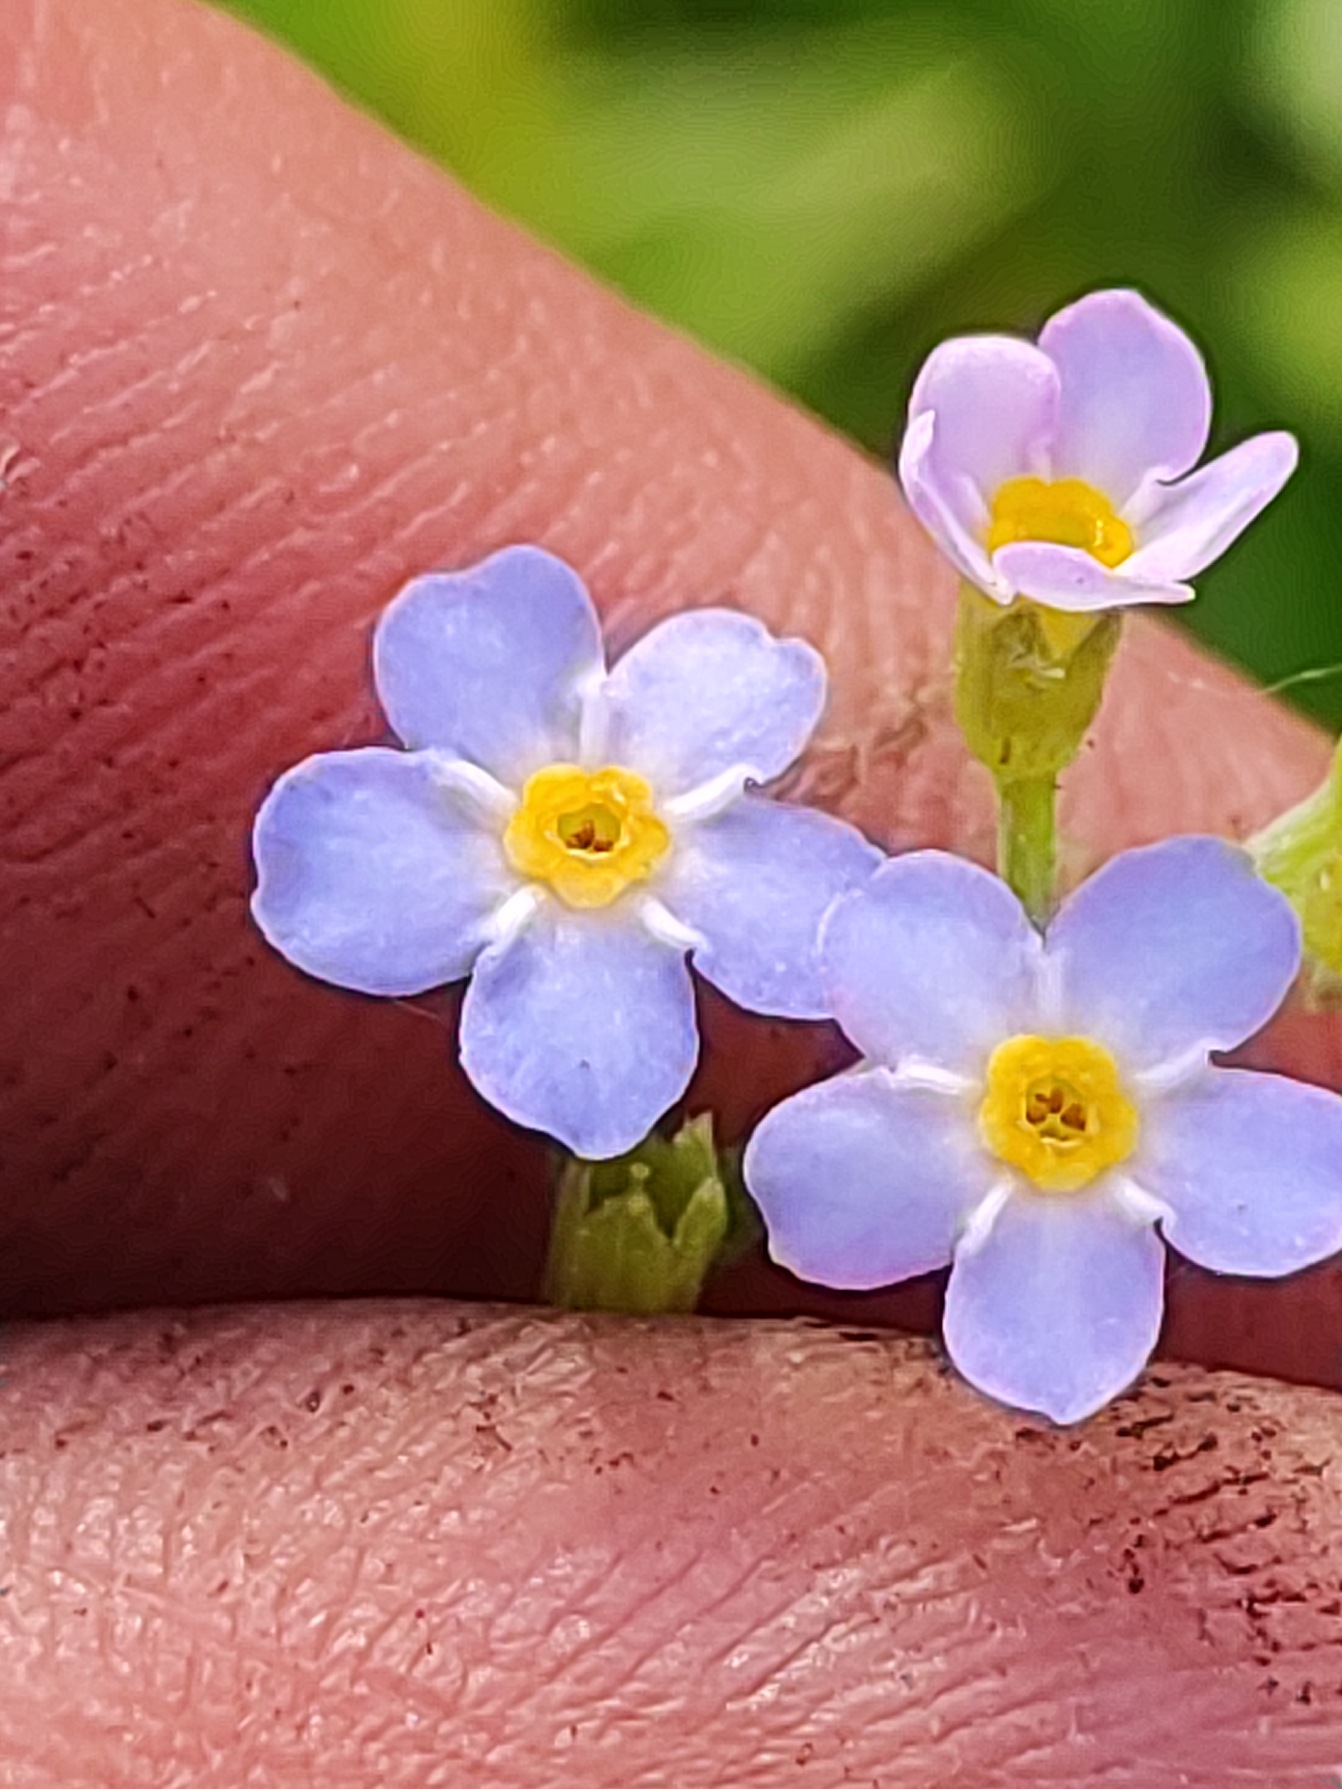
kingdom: Plantae
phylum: Tracheophyta
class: Magnoliopsida
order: Boraginales
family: Boraginaceae
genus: Myosotis
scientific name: Myosotis scorpioides
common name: Eng-forglemmigej
